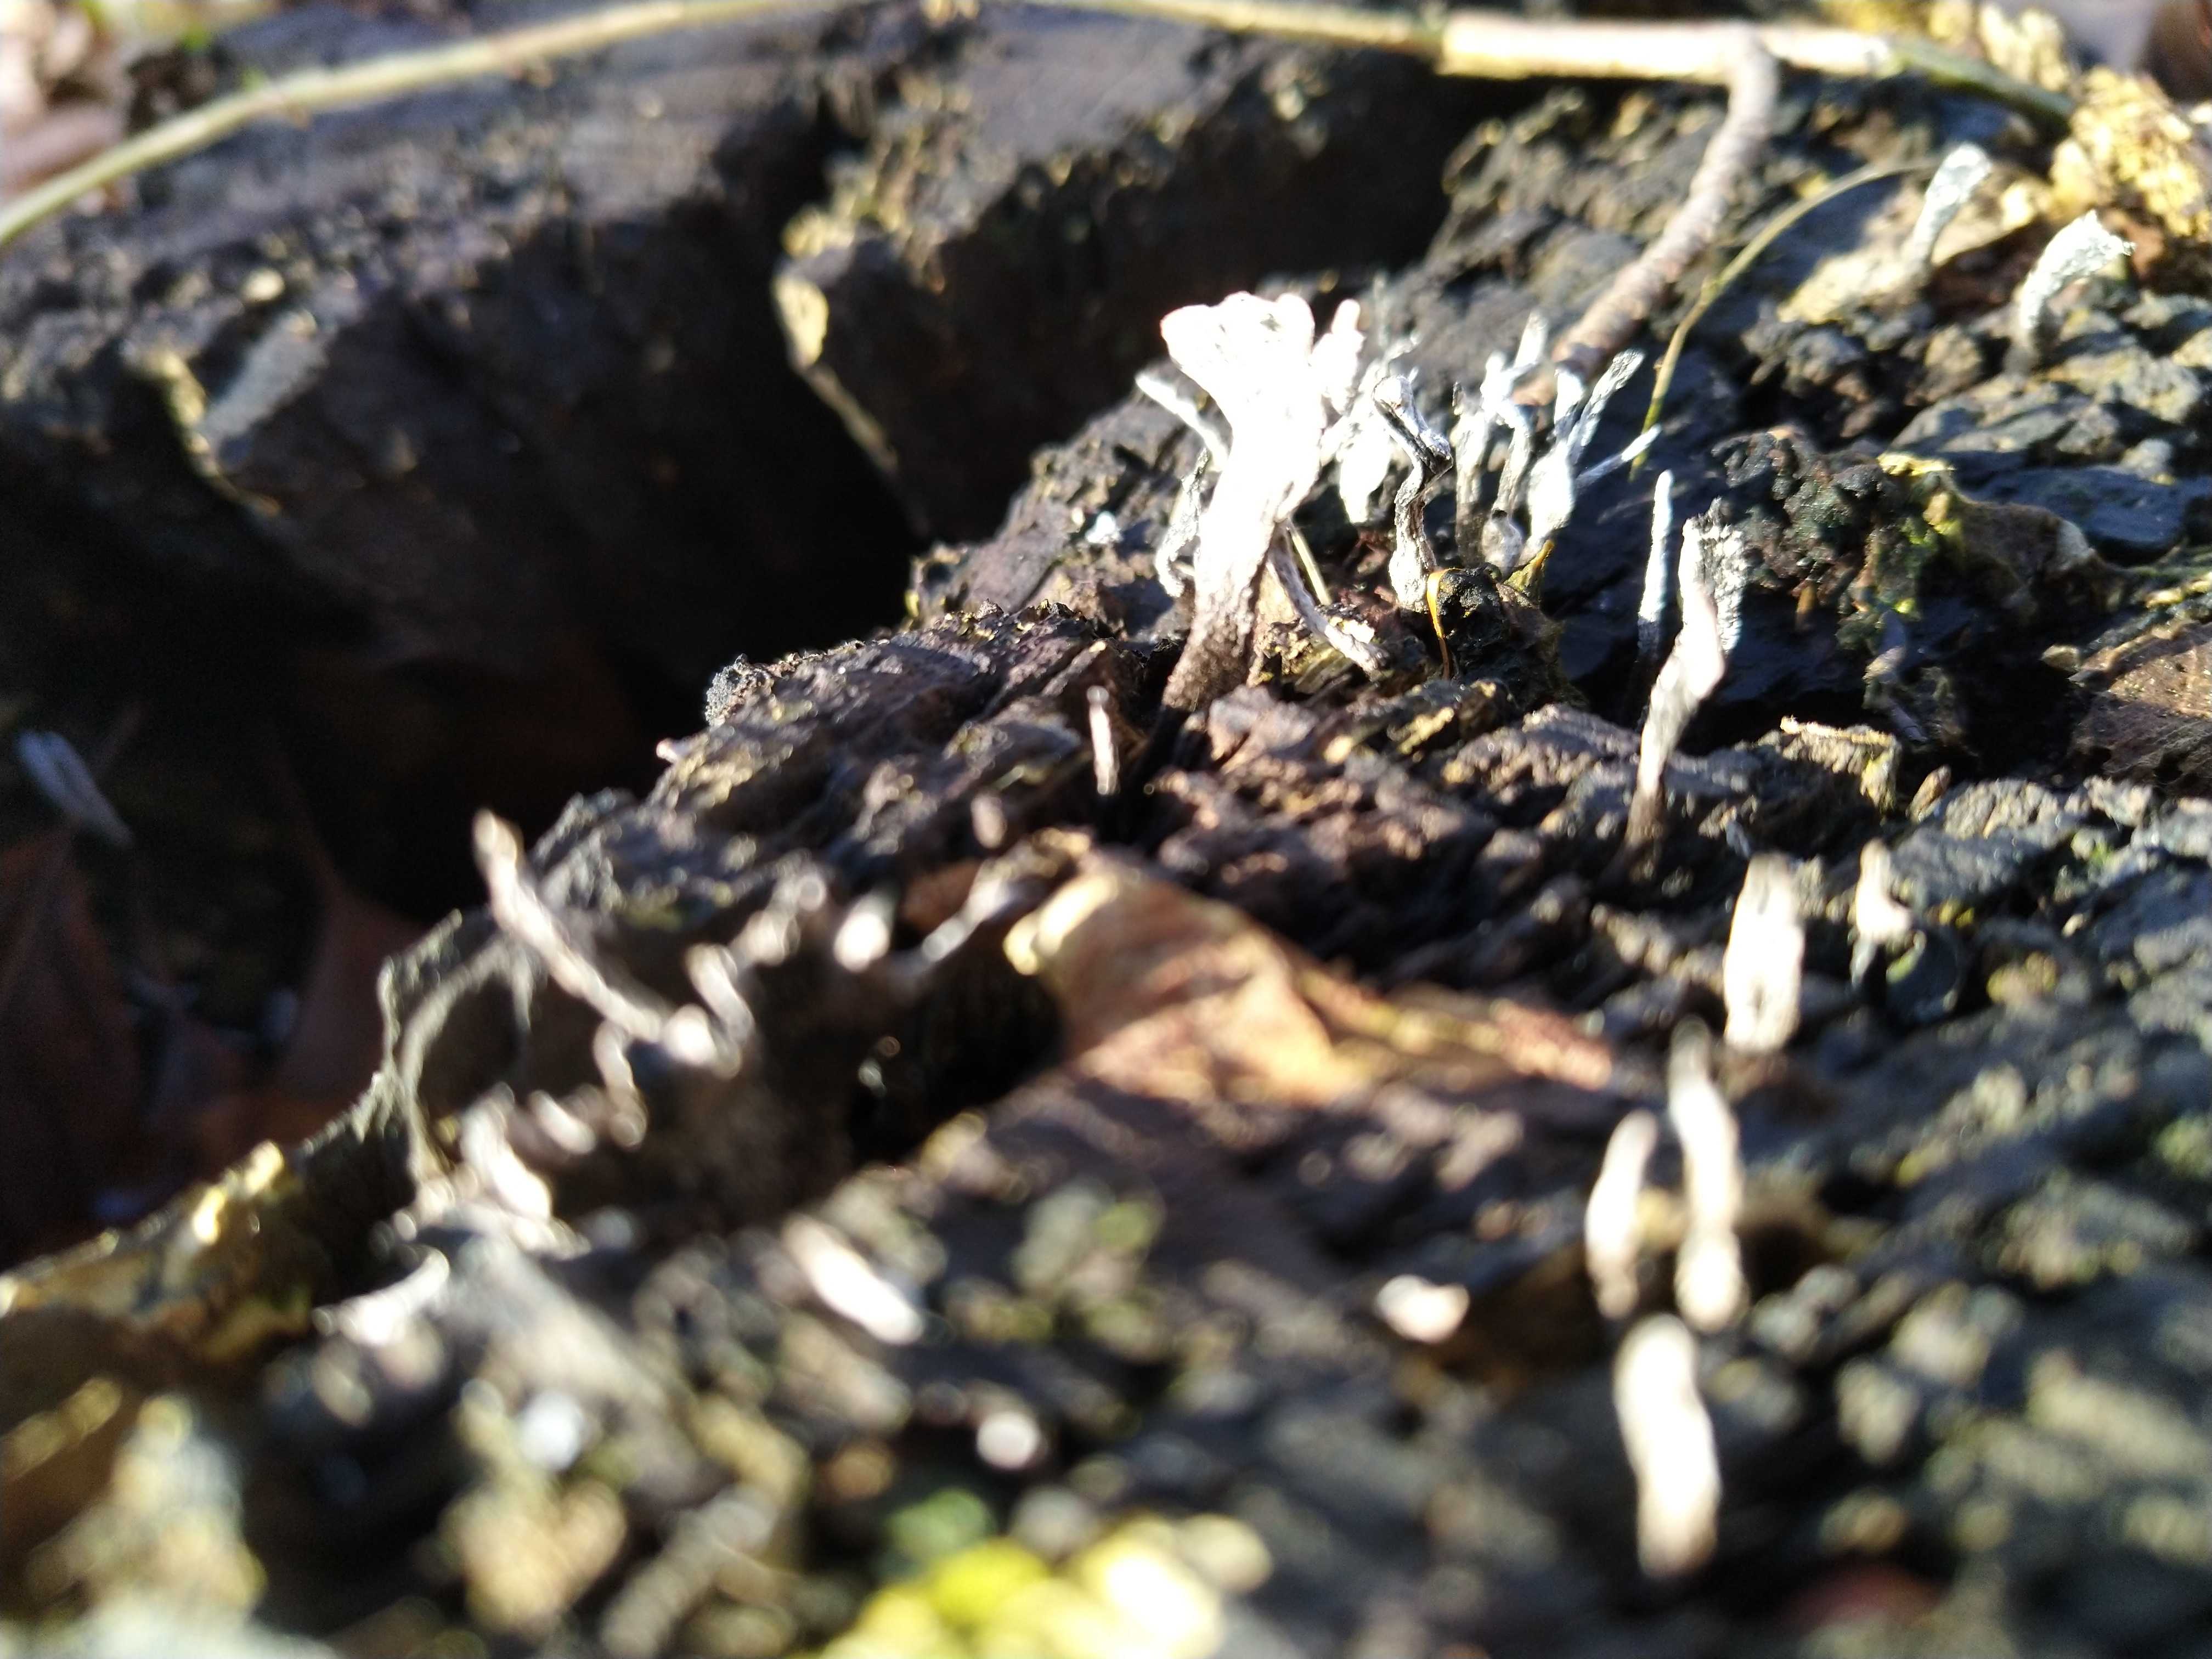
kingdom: Fungi
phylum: Ascomycota
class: Sordariomycetes
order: Xylariales
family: Xylariaceae
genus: Xylaria
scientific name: Xylaria hypoxylon
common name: grenet stødsvamp
